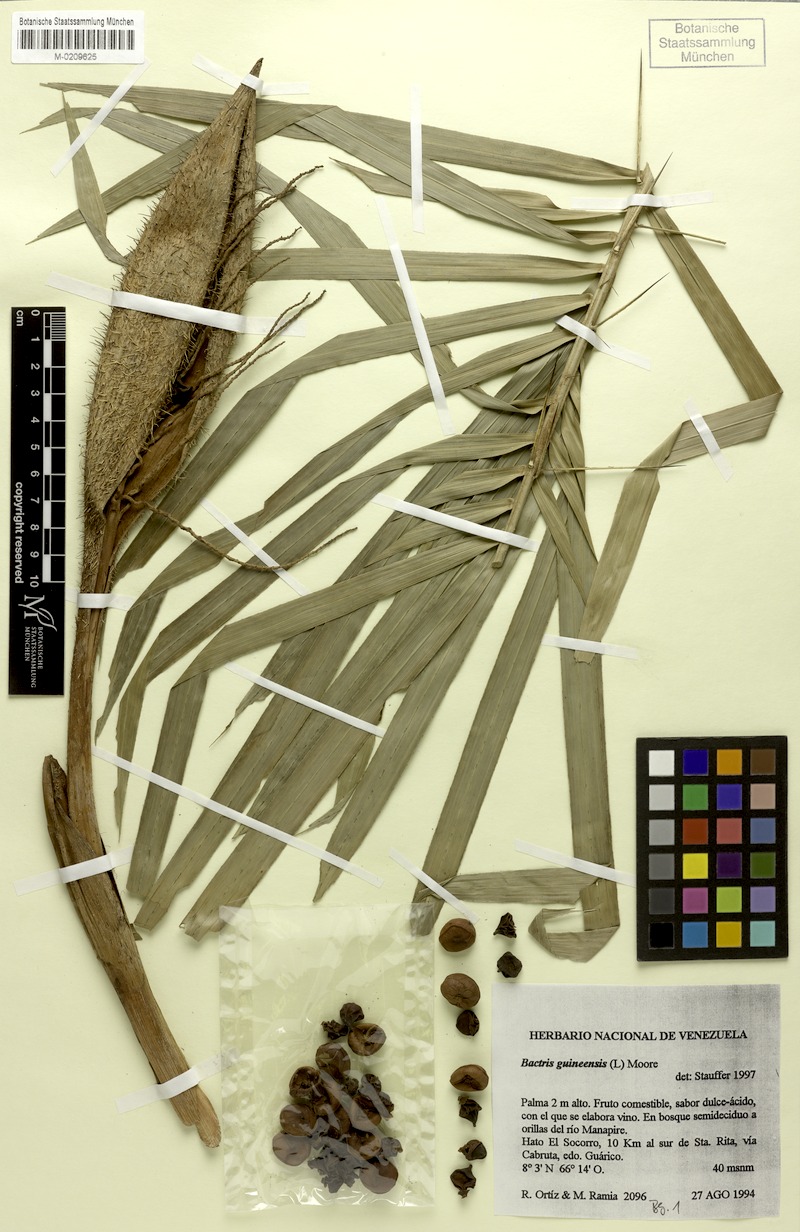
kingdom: Plantae
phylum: Tracheophyta
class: Liliopsida
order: Arecales
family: Arecaceae
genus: Bactris
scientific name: Bactris guineensis
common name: Tobago cane
